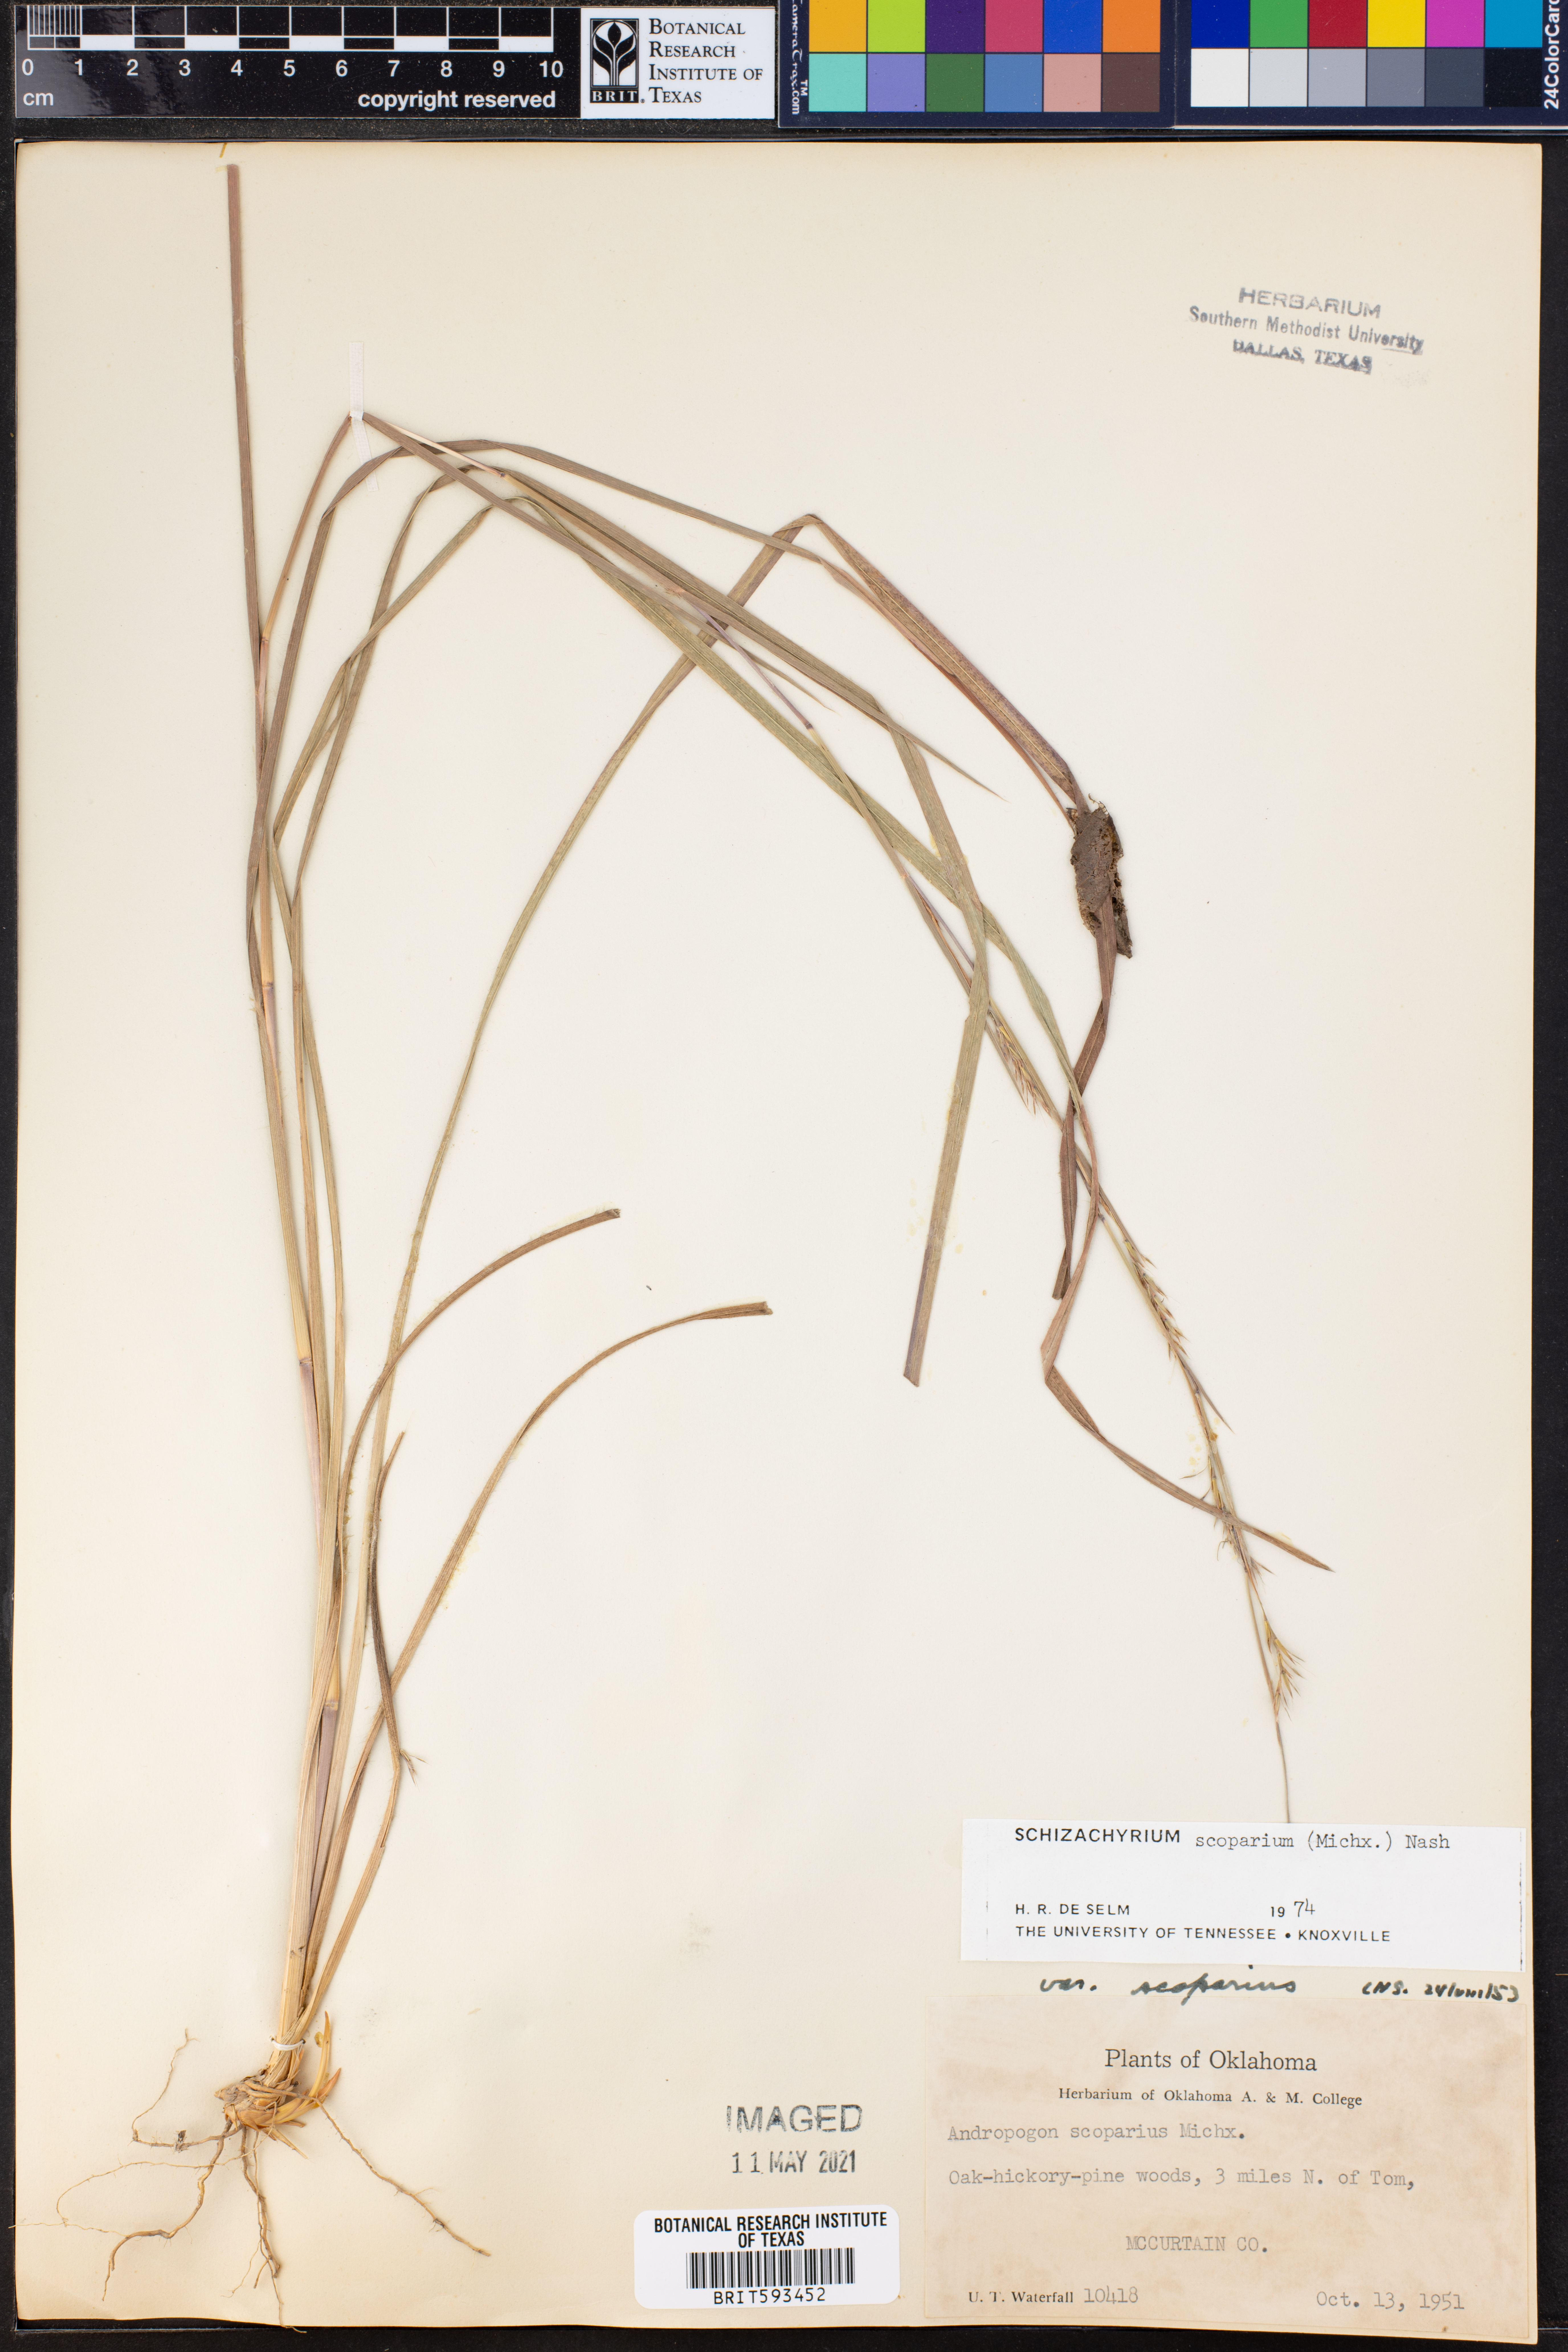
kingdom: Plantae
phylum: Tracheophyta
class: Liliopsida
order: Poales
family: Poaceae
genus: Schizachyrium
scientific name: Schizachyrium scoparium
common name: Little bluestem
